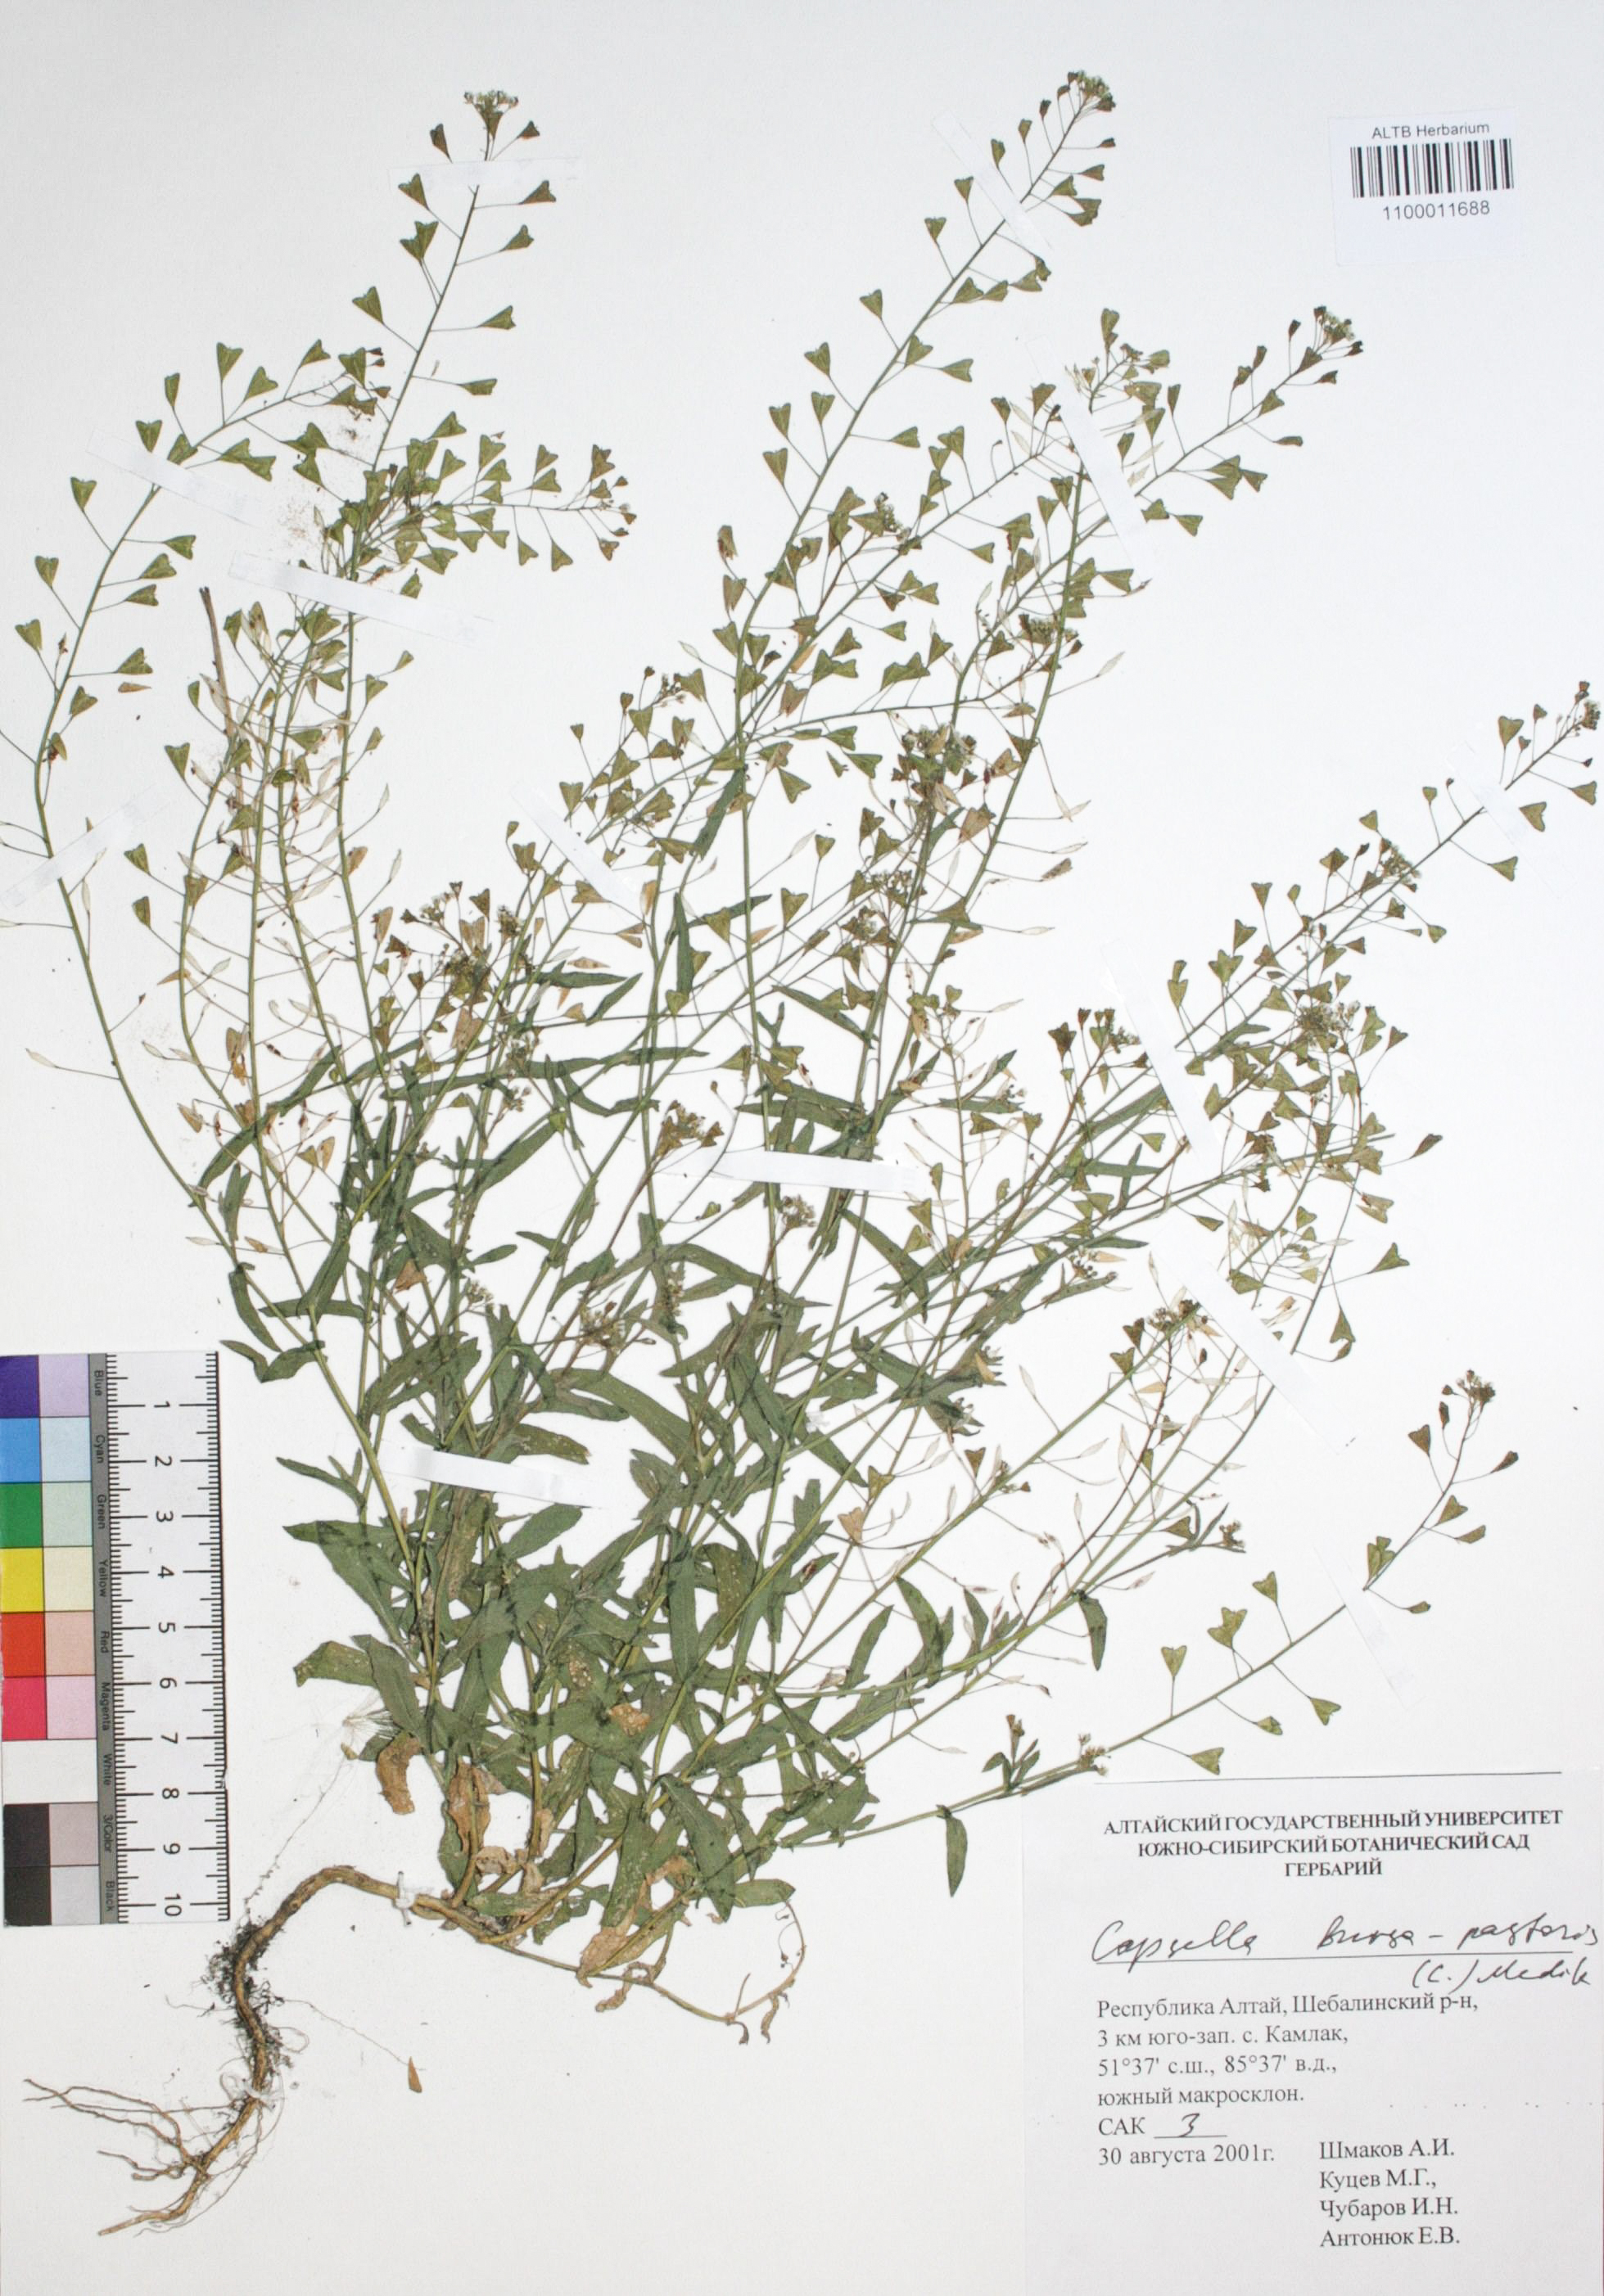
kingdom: Plantae
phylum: Tracheophyta
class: Magnoliopsida
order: Brassicales
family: Brassicaceae
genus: Capsella
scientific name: Capsella bursa-pastoris
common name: Shepherd's purse
